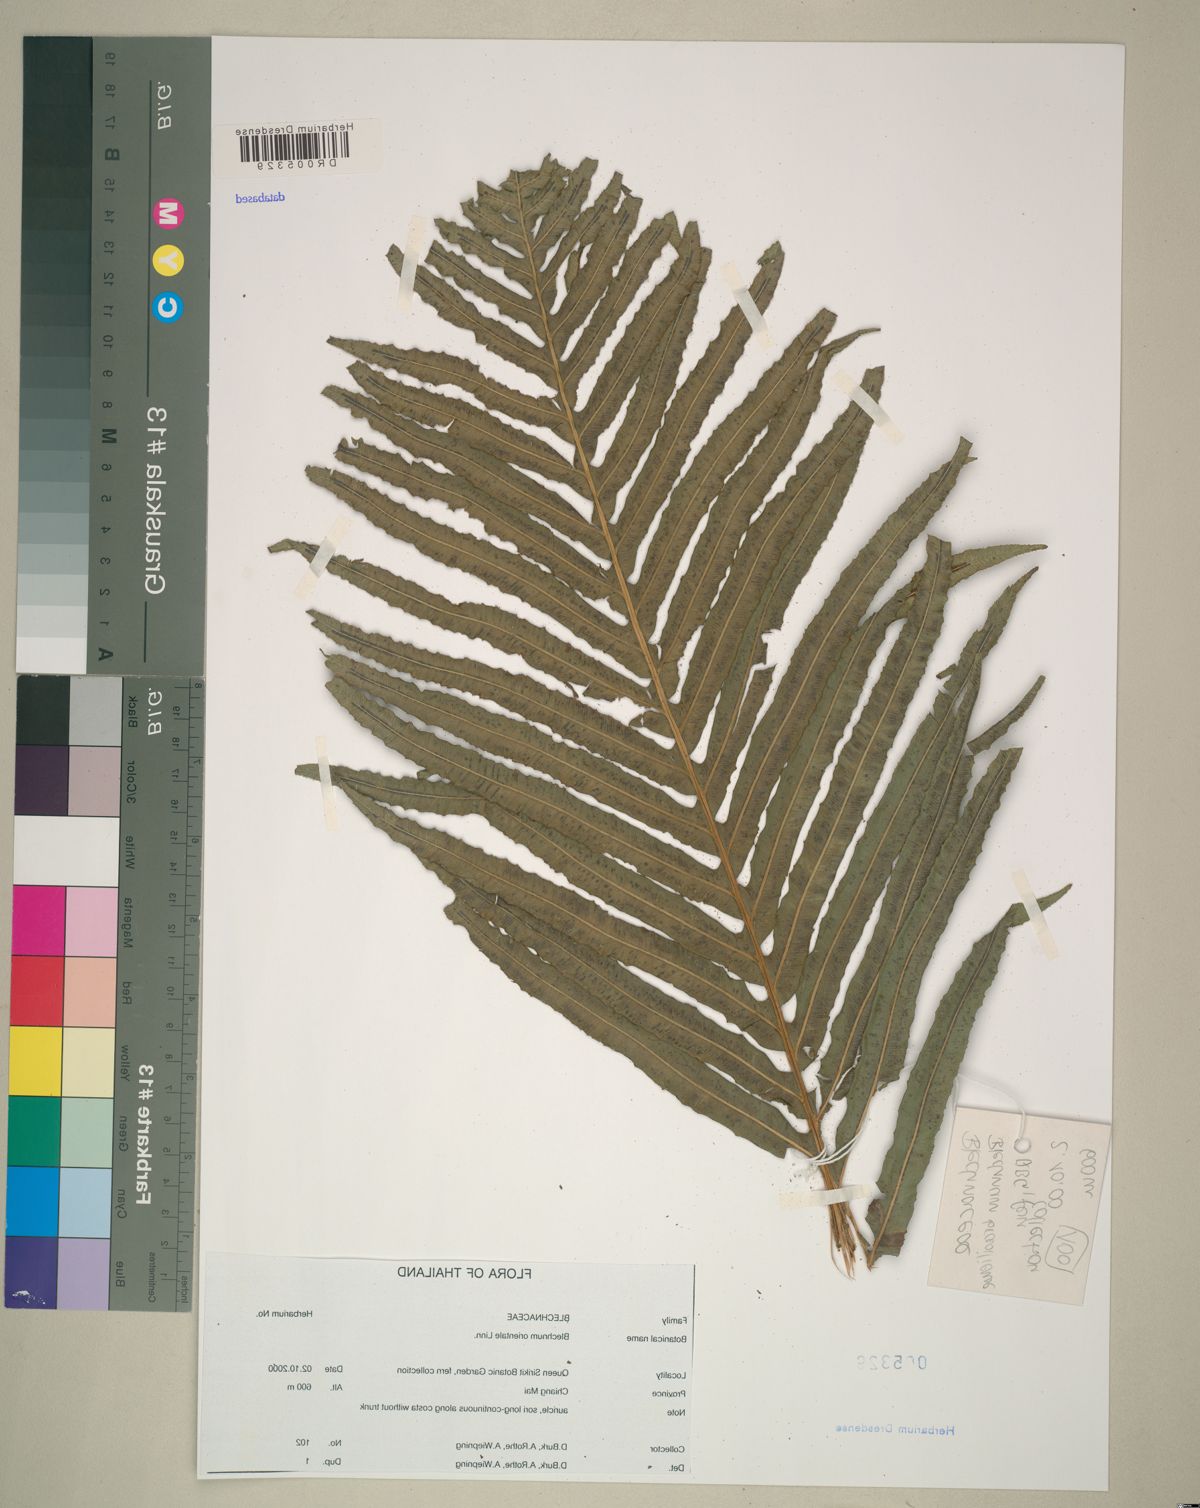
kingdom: Plantae
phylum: Tracheophyta
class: Polypodiopsida
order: Polypodiales
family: Blechnaceae
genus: Blechnopsis
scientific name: Blechnopsis orientalis
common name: Oriental blechnum
